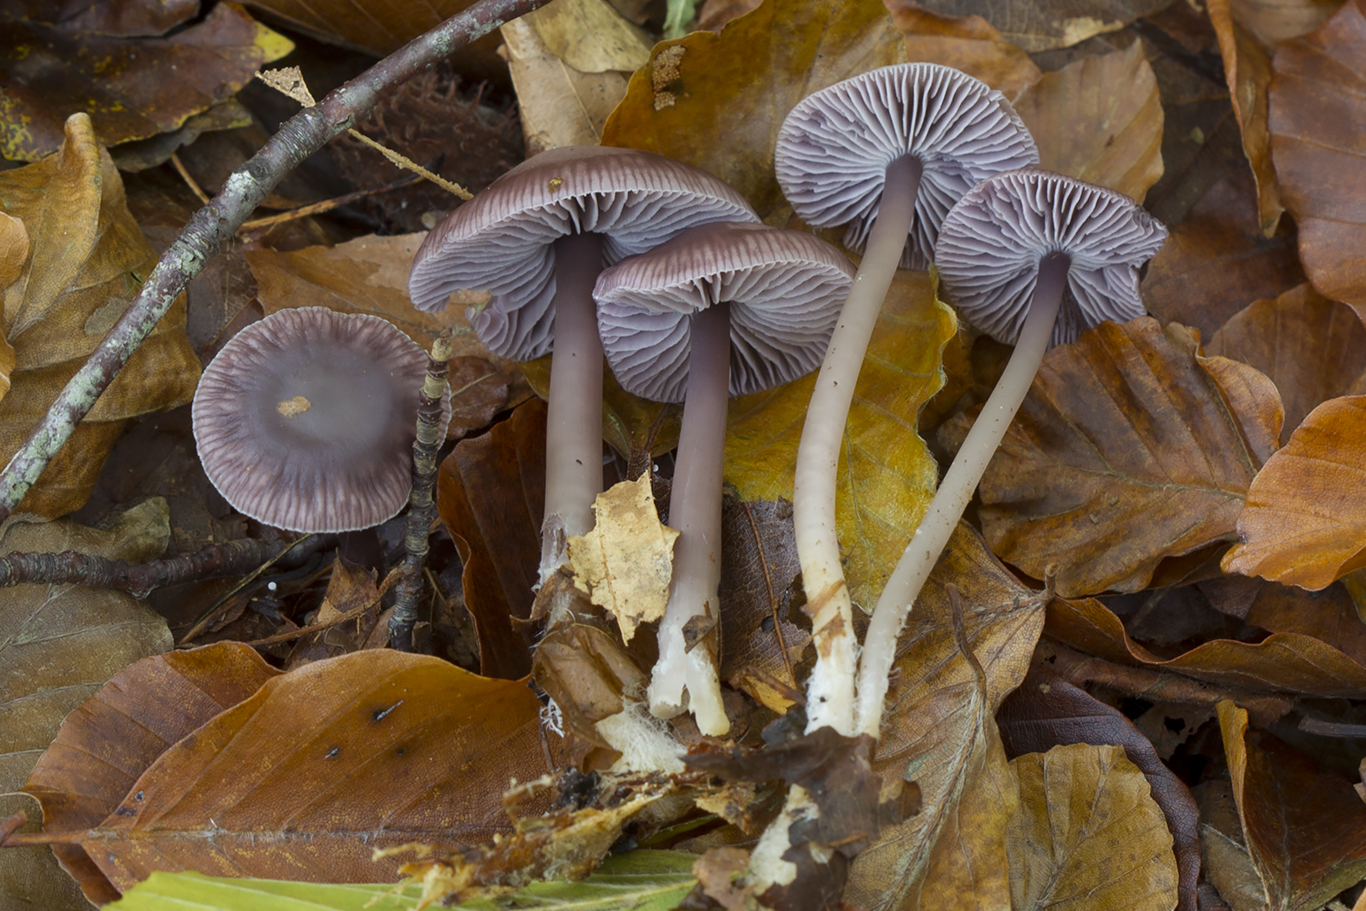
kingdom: Fungi
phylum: Basidiomycota
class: Agaricomycetes
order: Agaricales
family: Mycenaceae
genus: Prunulus
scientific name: Prunulus diosmus
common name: tobaks-huesvamp
